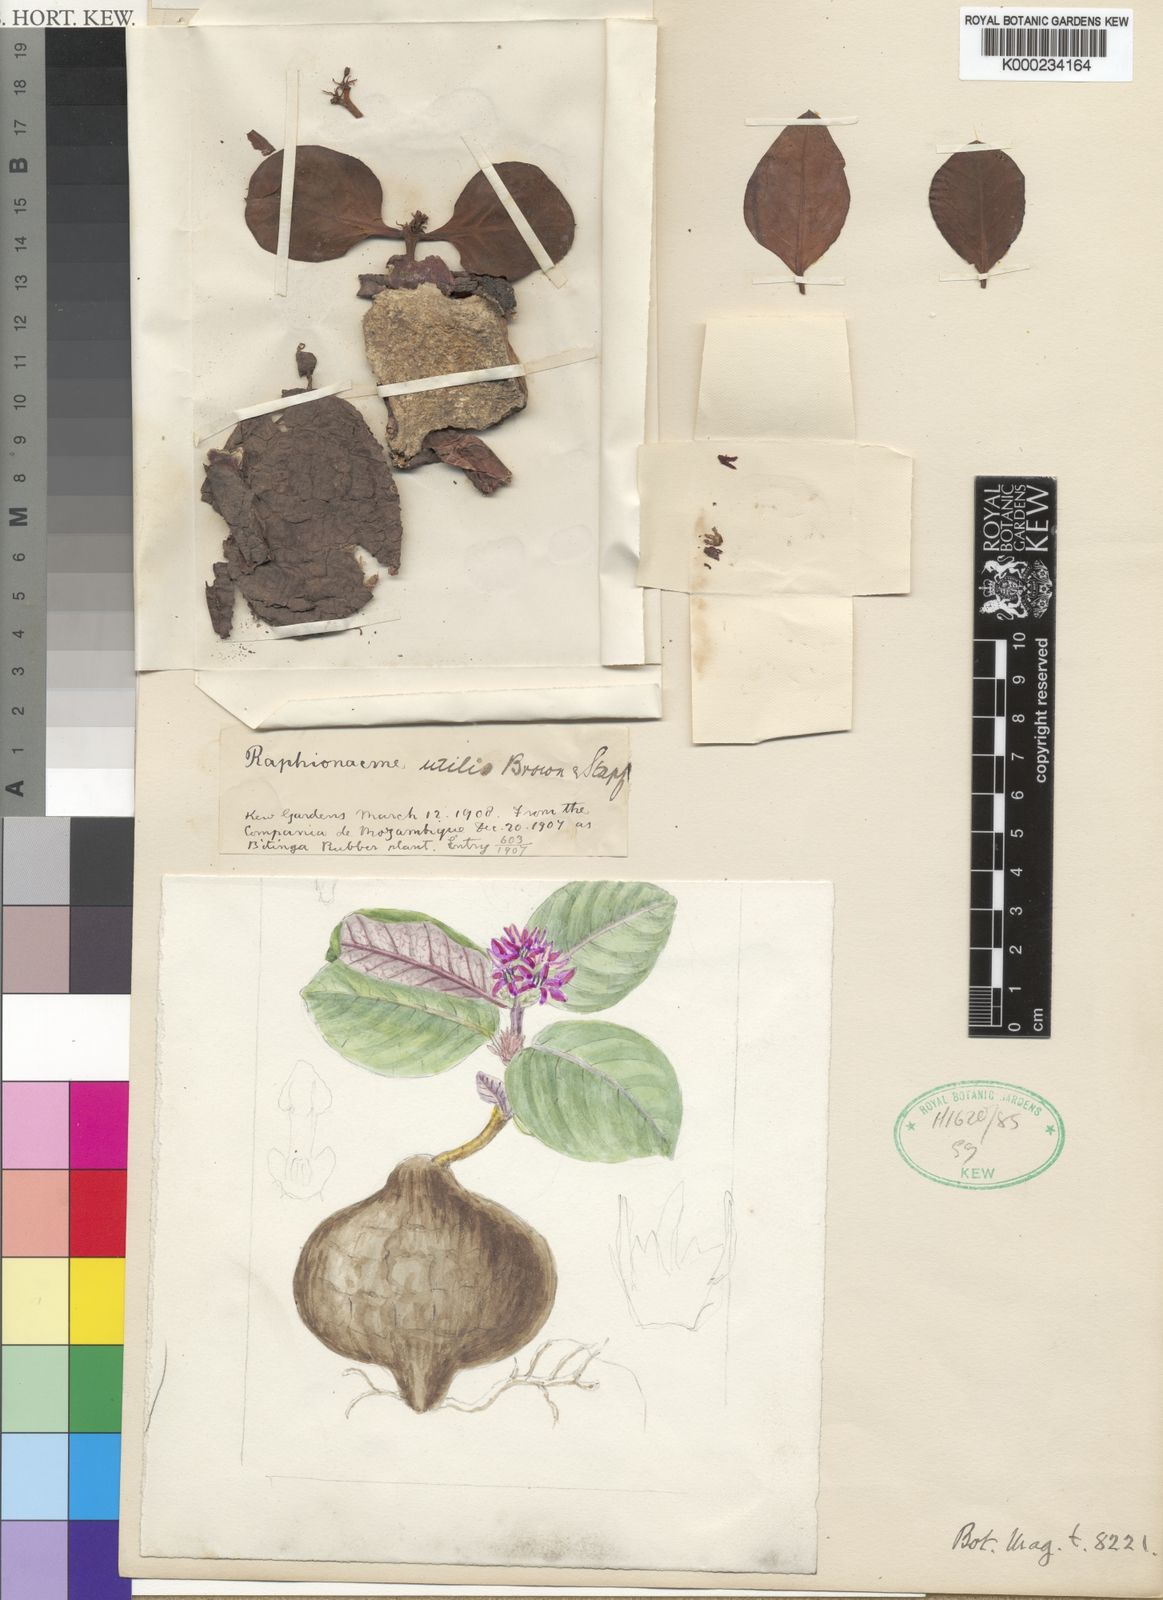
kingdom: Plantae
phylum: Tracheophyta
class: Magnoliopsida
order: Gentianales
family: Apocynaceae
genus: Raphionacme
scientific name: Raphionacme utilis
